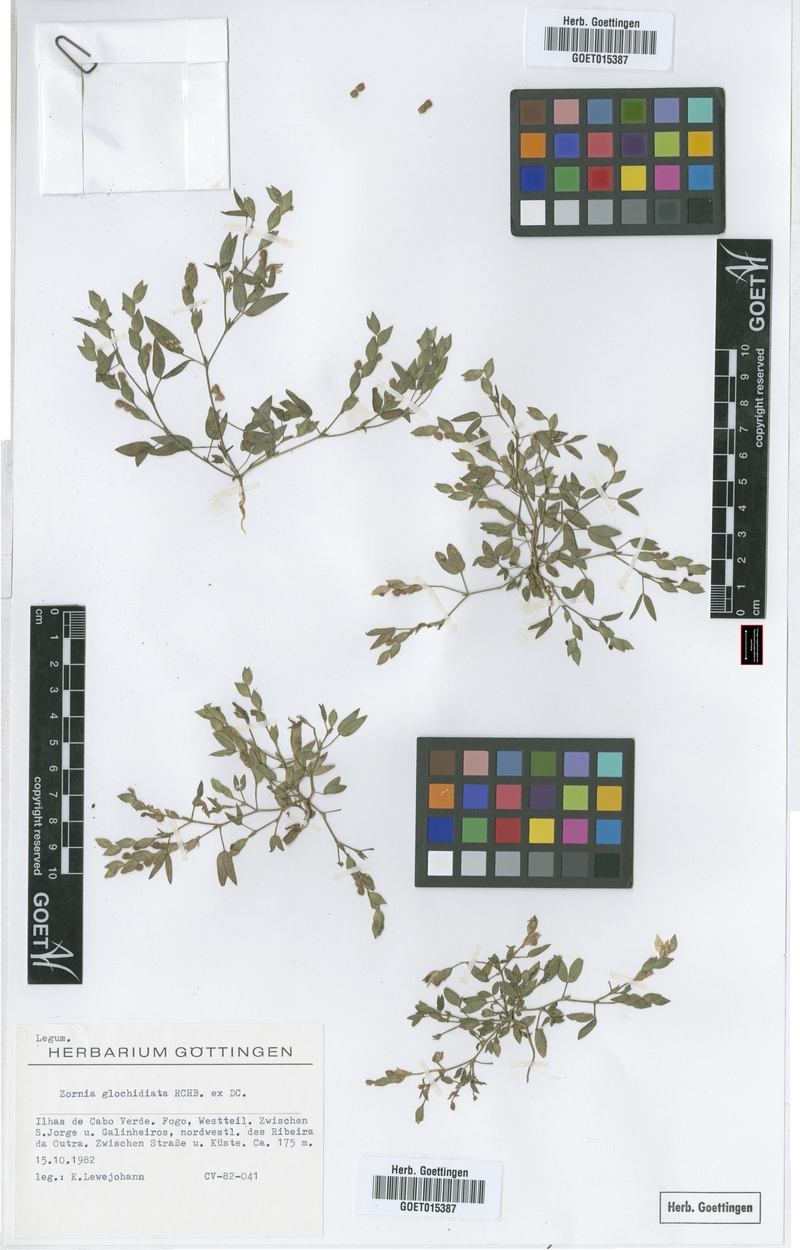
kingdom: Plantae
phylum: Tracheophyta
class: Magnoliopsida
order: Fabales
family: Fabaceae
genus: Zornia
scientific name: Zornia glochidiata
